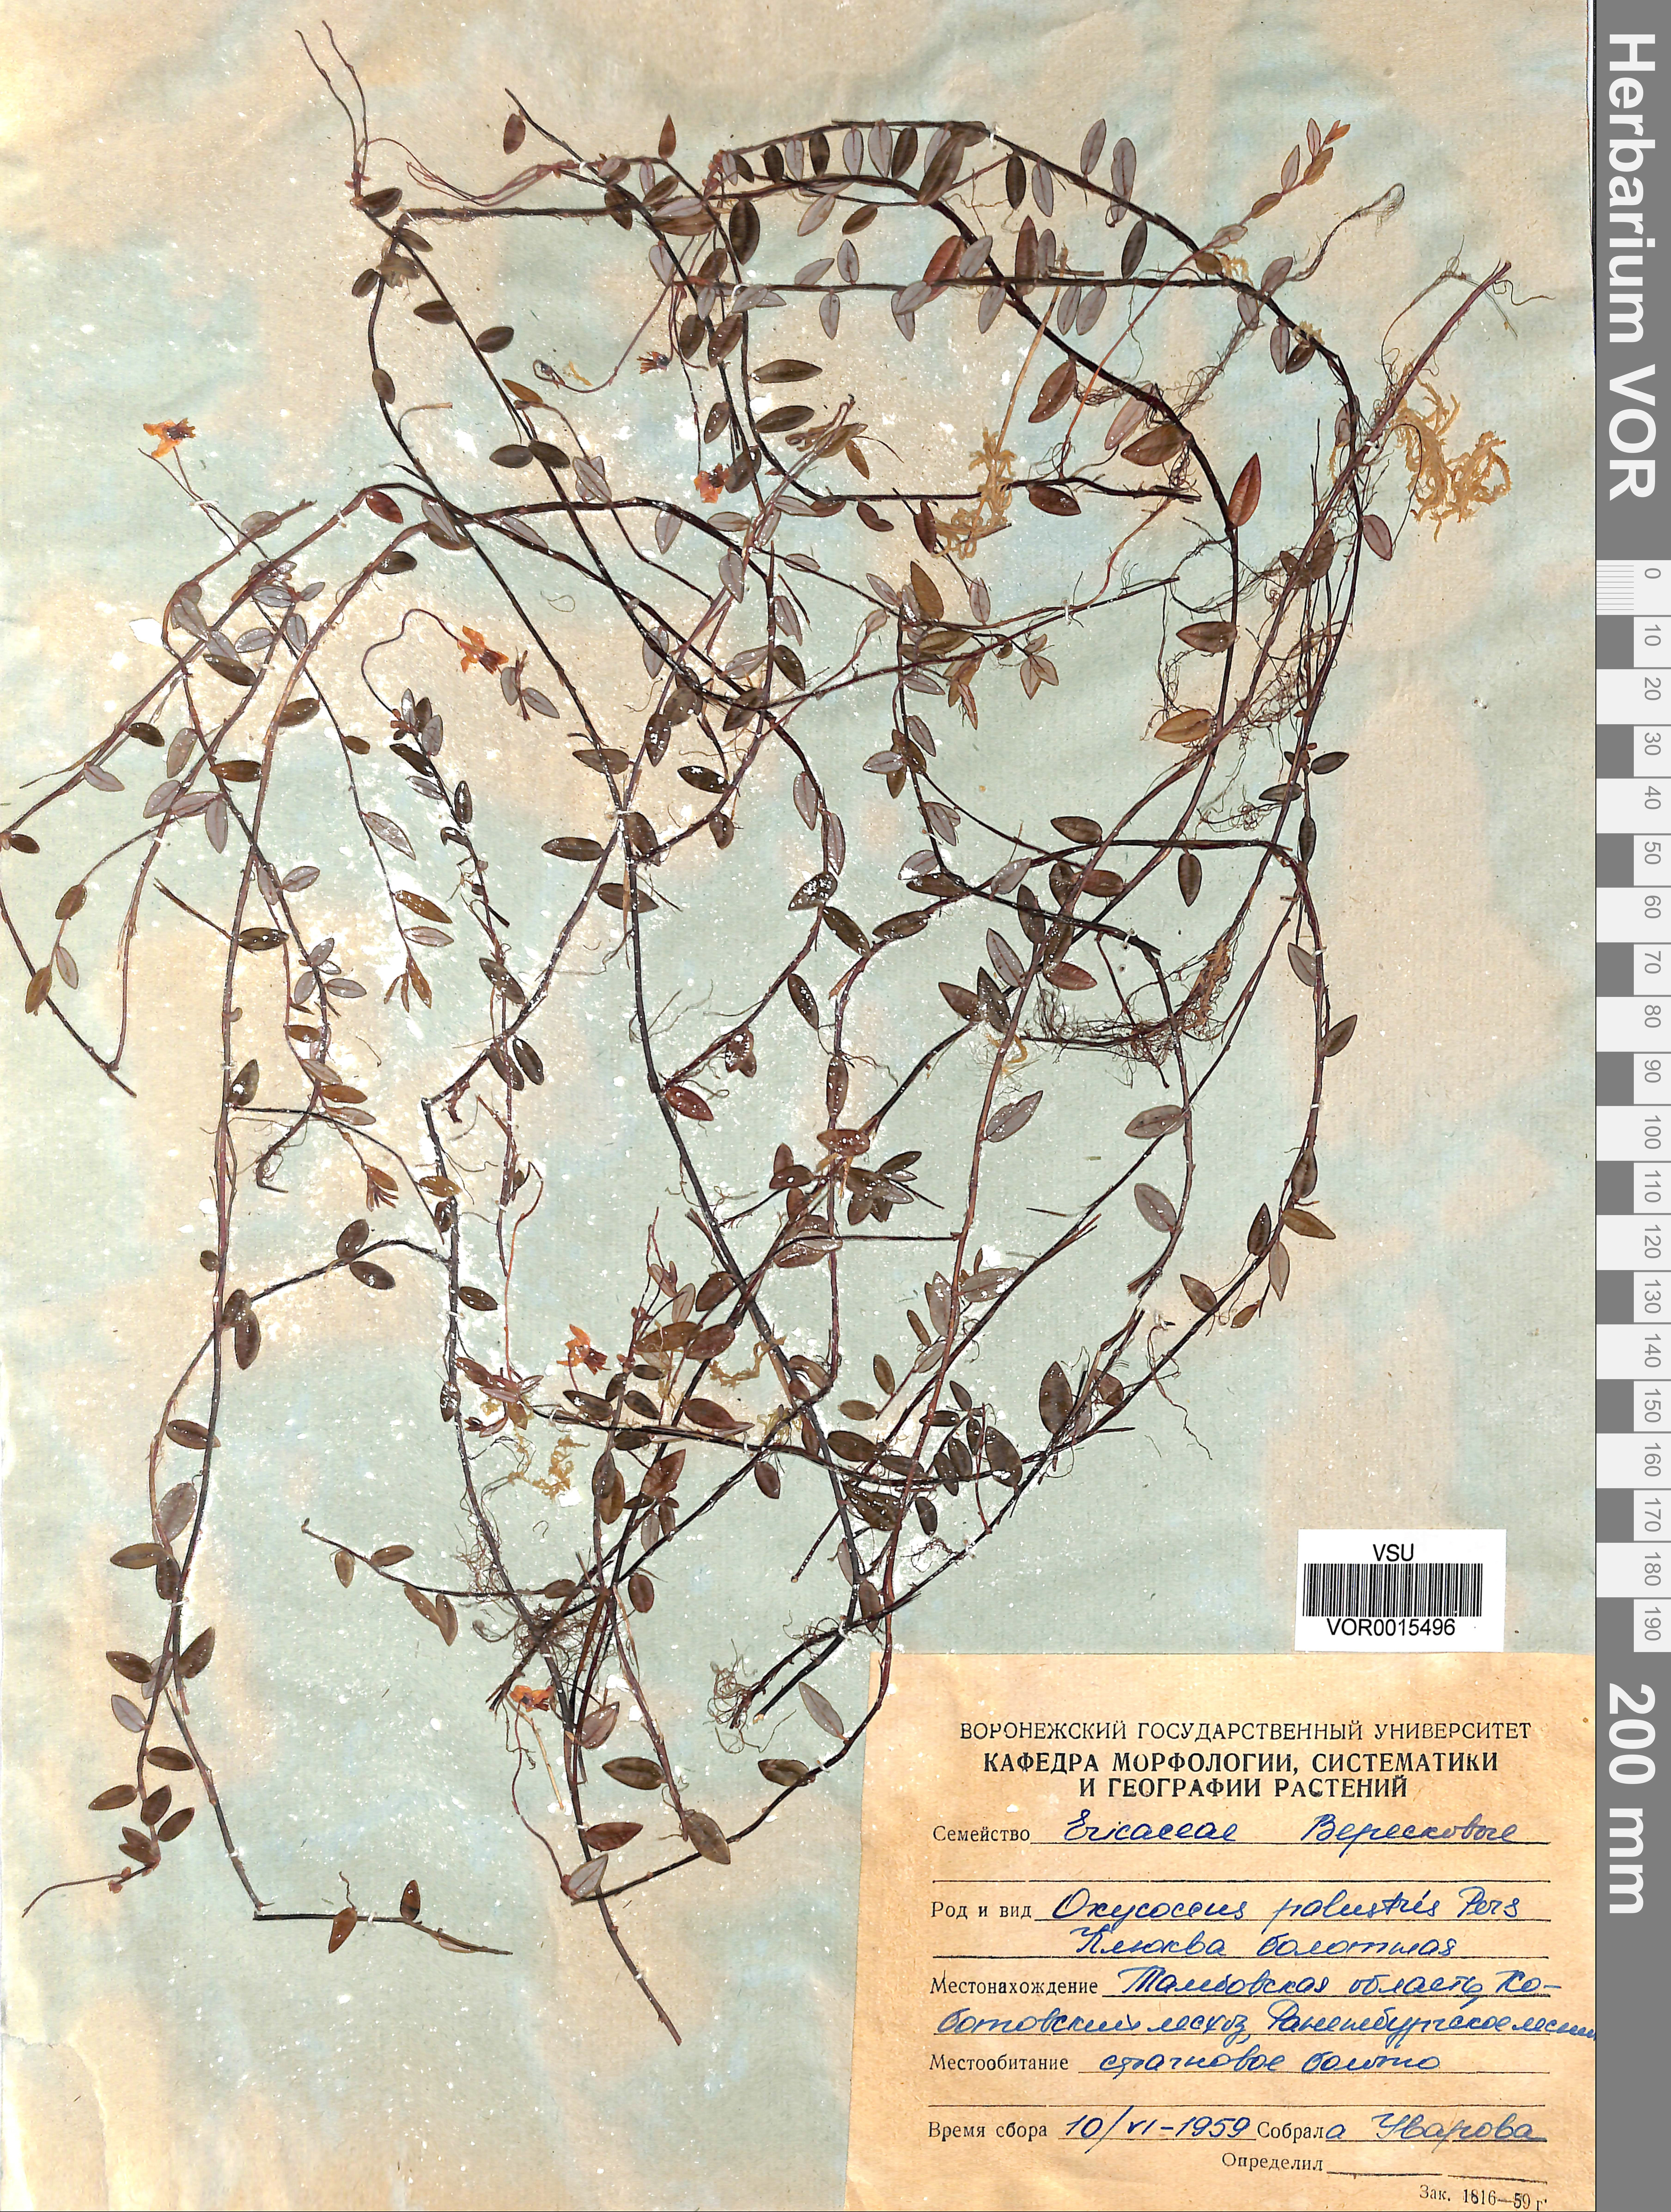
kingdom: Plantae
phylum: Tracheophyta
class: Magnoliopsida
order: Ericales
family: Ericaceae
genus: Vaccinium
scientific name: Vaccinium oxycoccos
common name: Cranberry
